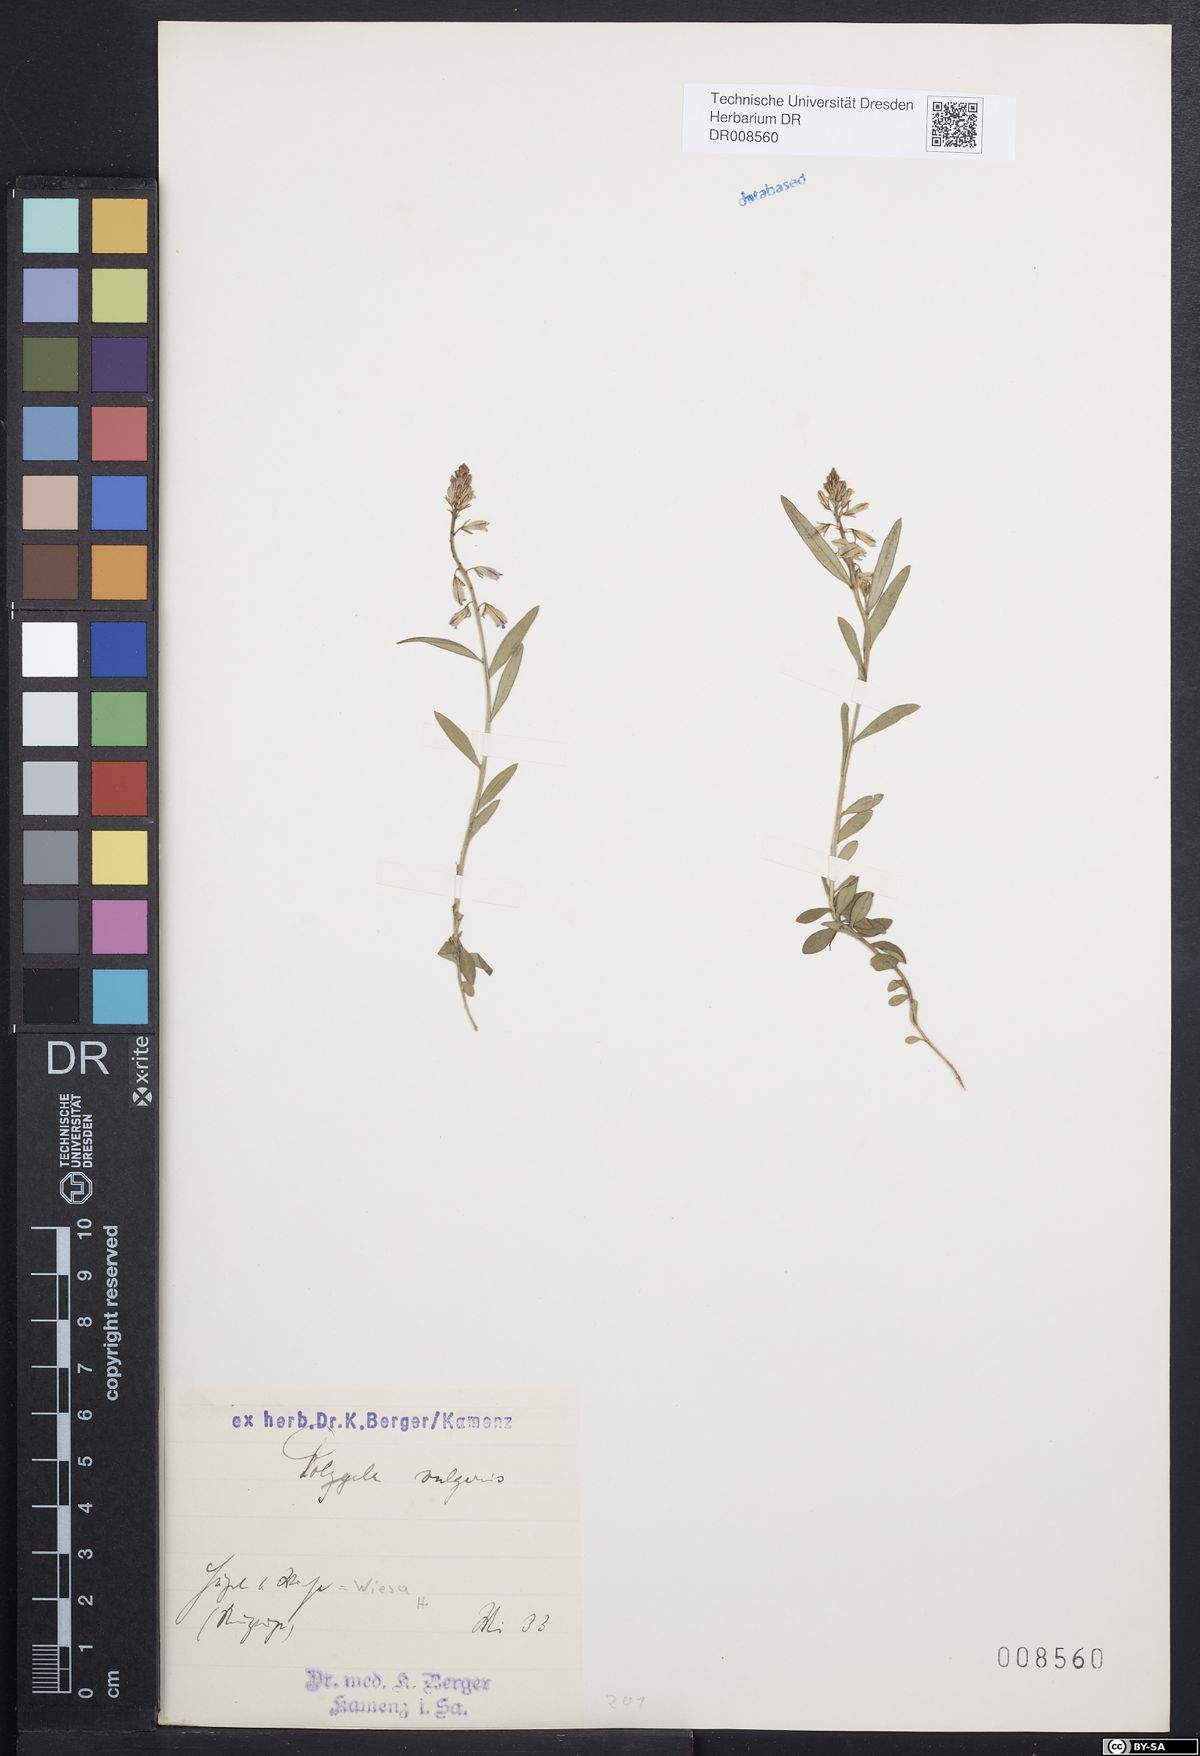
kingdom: Plantae
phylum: Tracheophyta
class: Magnoliopsida
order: Fabales
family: Polygalaceae
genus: Polygala
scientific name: Polygala vulgaris
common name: Common milkwort
